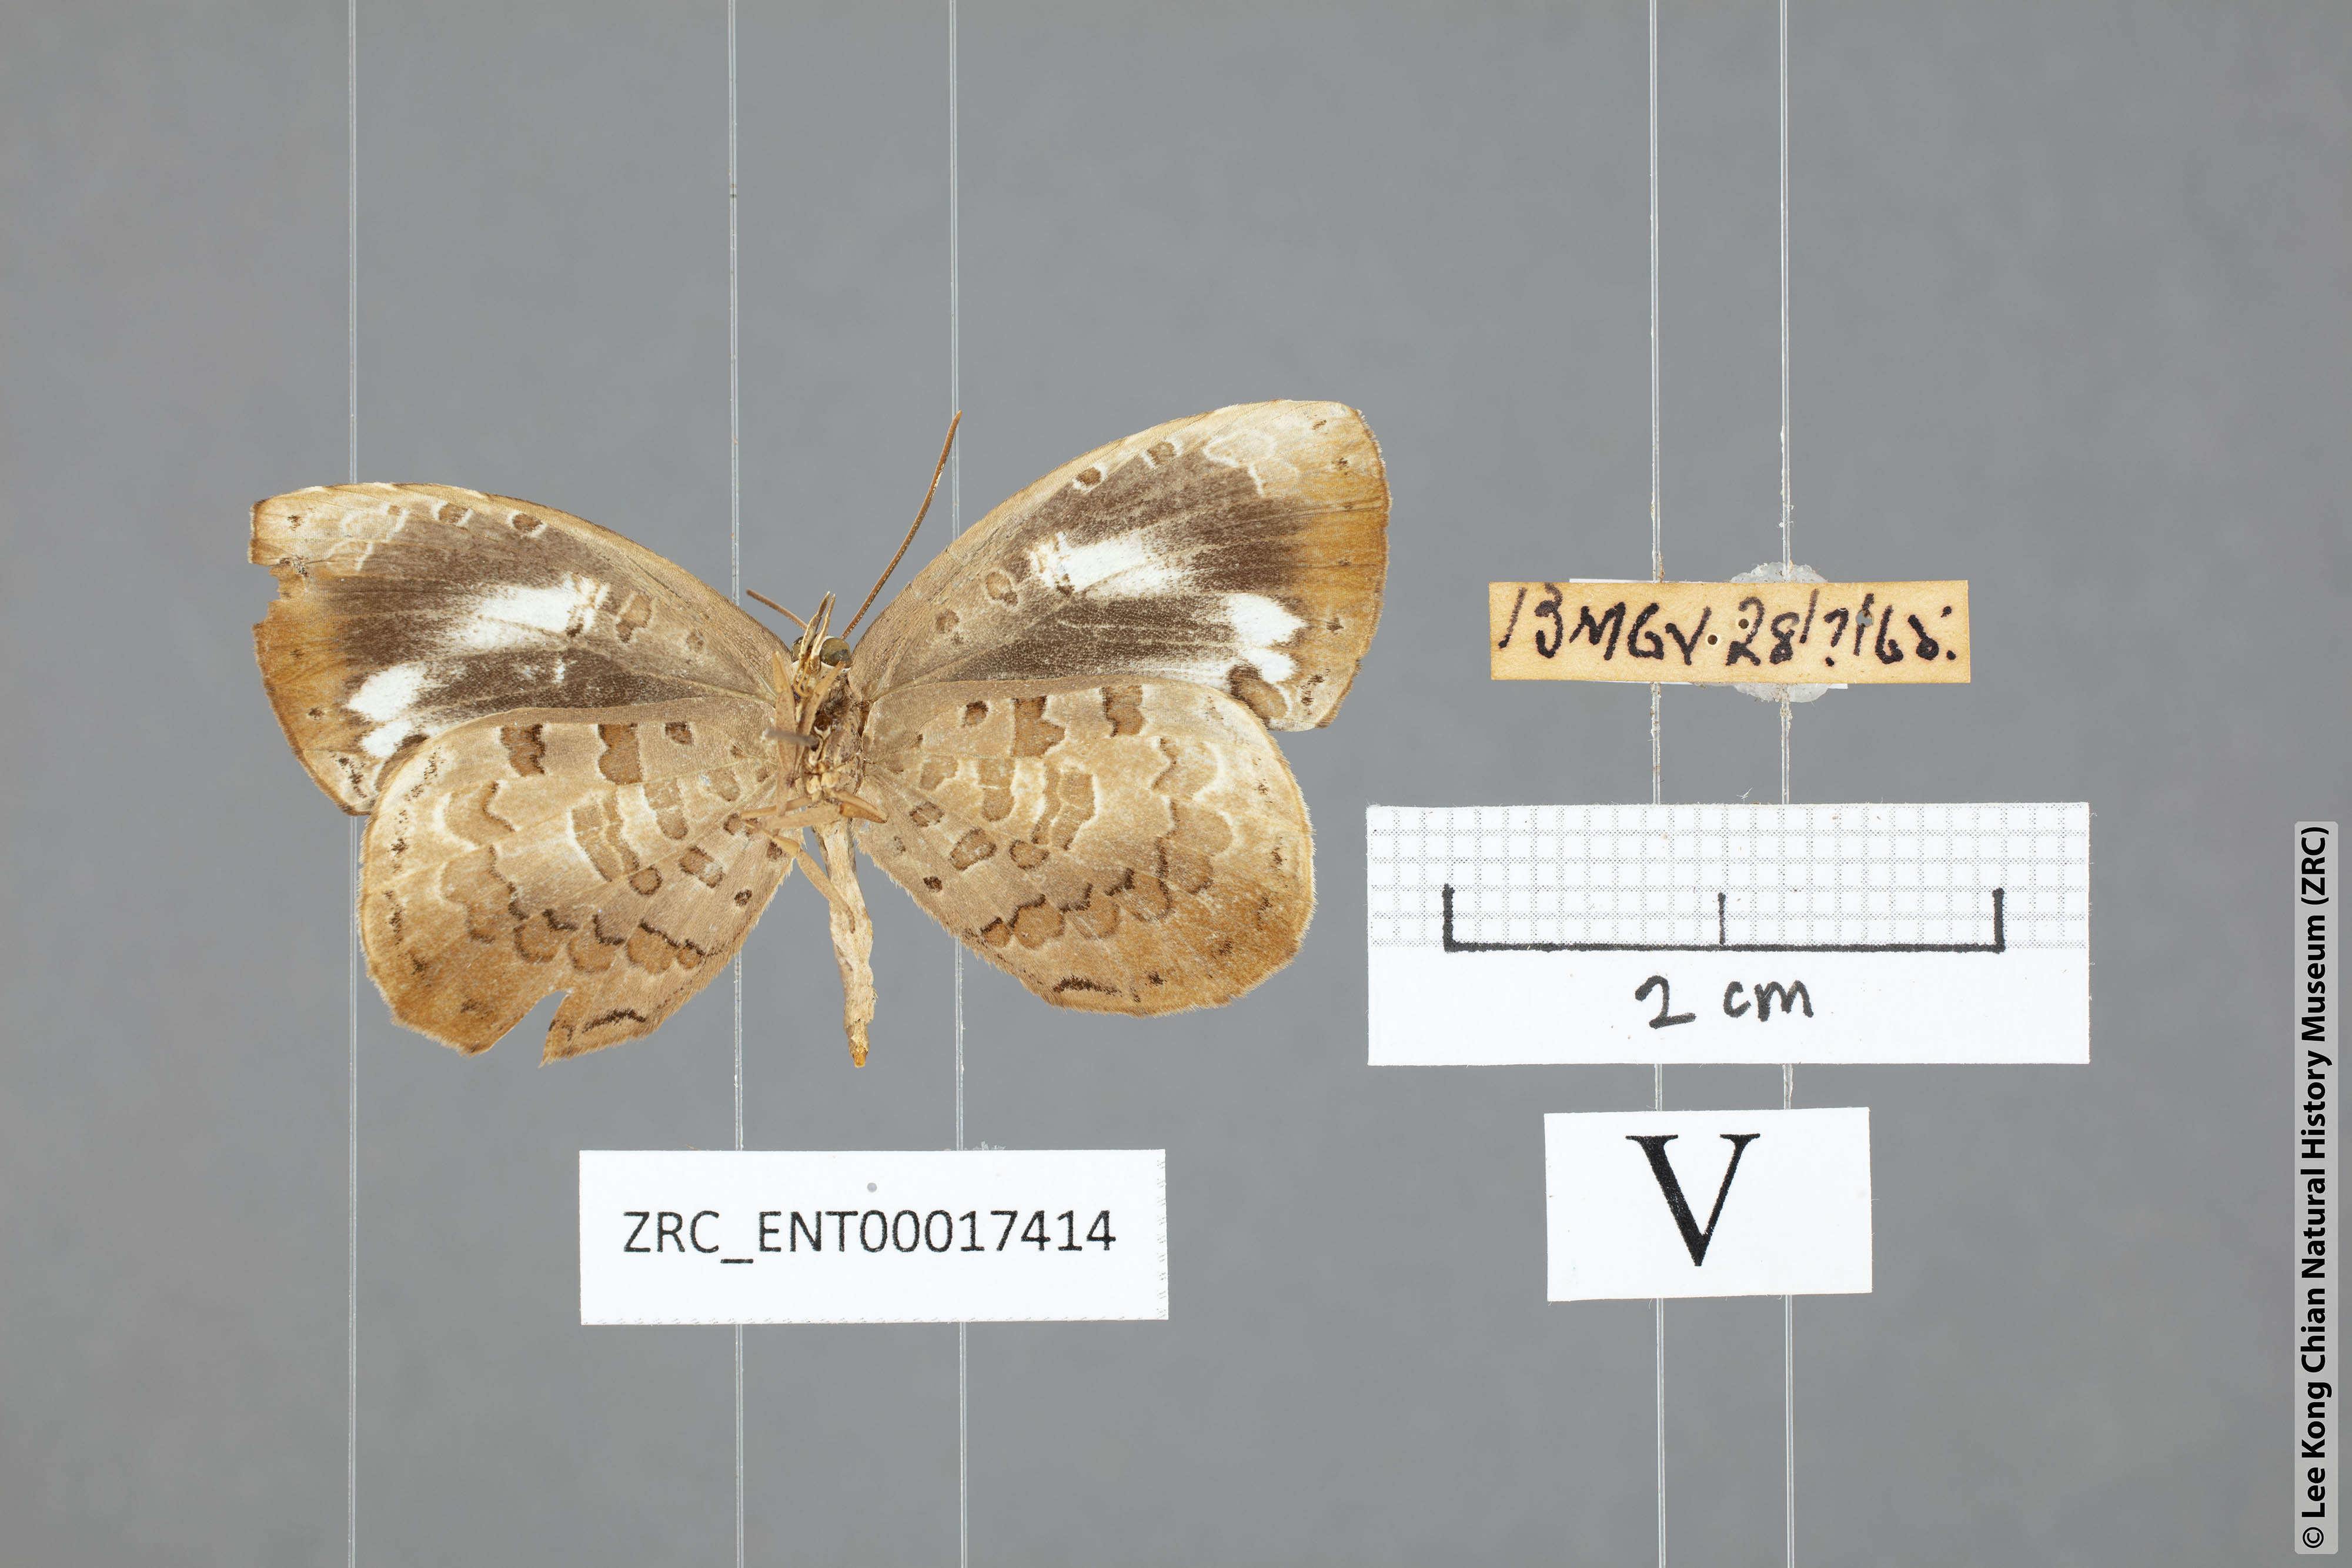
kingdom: Animalia
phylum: Arthropoda
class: Insecta
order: Lepidoptera
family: Lycaenidae
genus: Miletus
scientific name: Miletus
